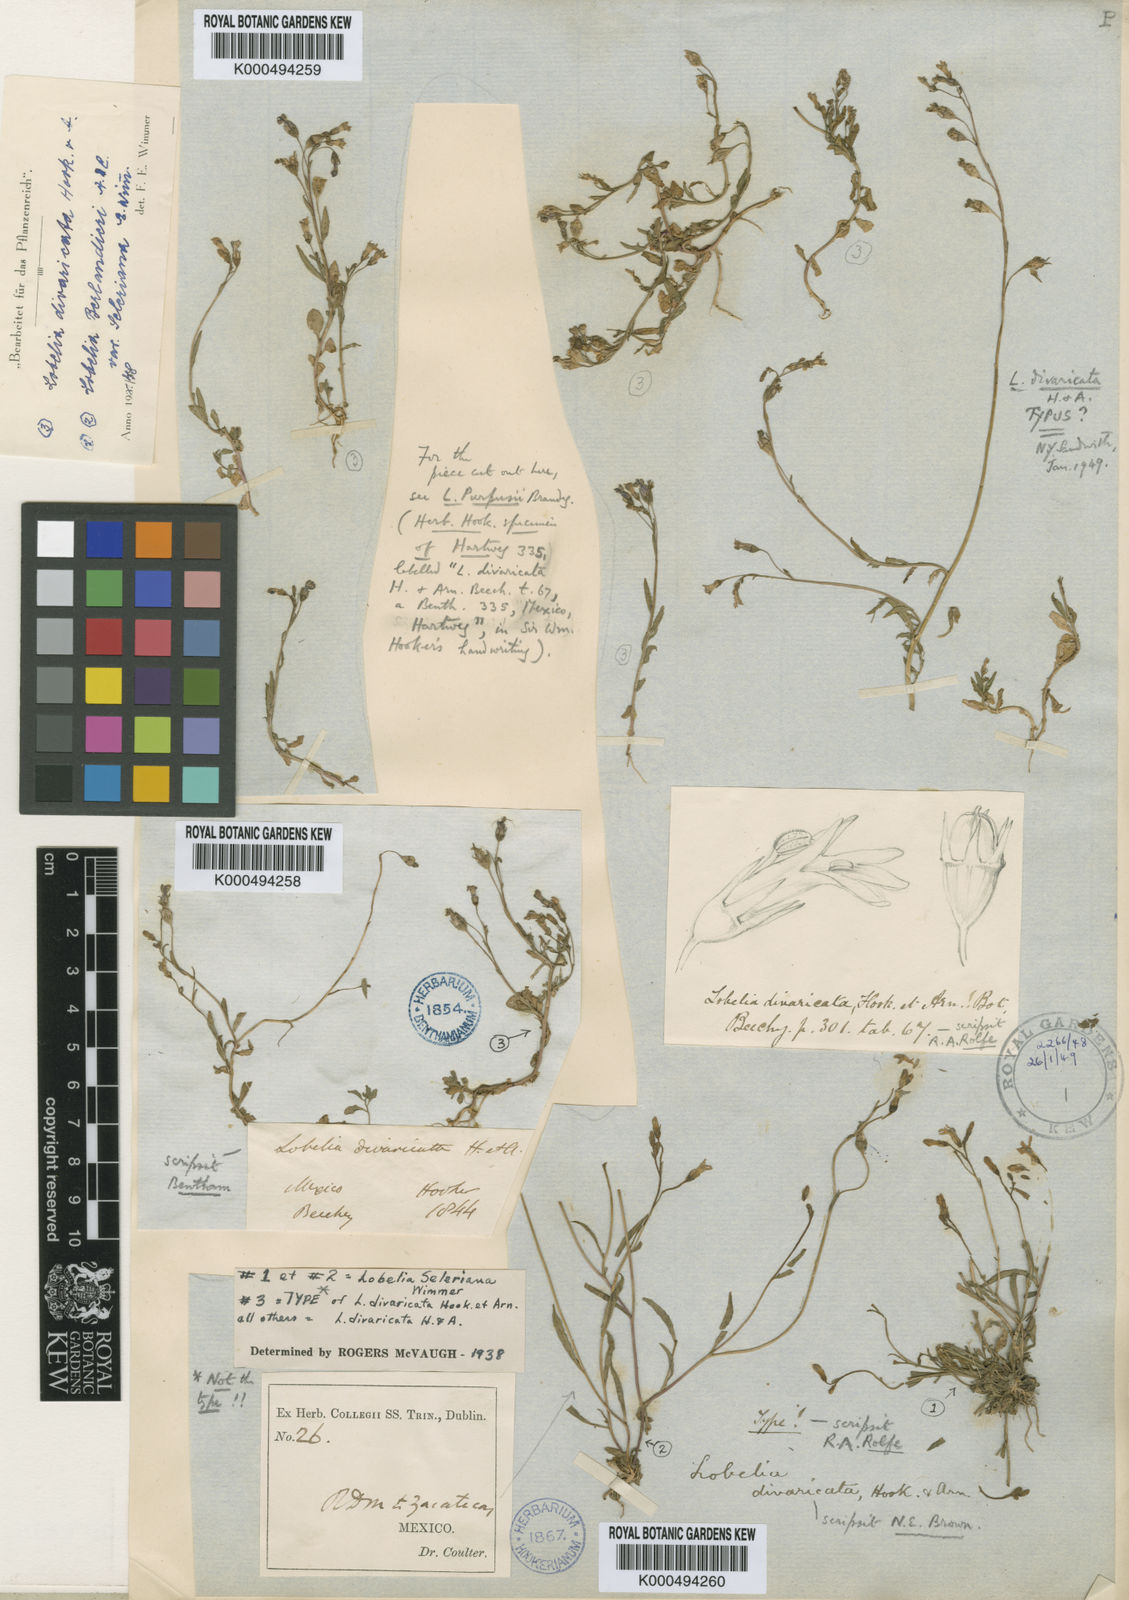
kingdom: Plantae
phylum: Tracheophyta
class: Magnoliopsida
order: Asterales
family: Campanulaceae
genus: Lobelia
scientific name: Lobelia divaricata
